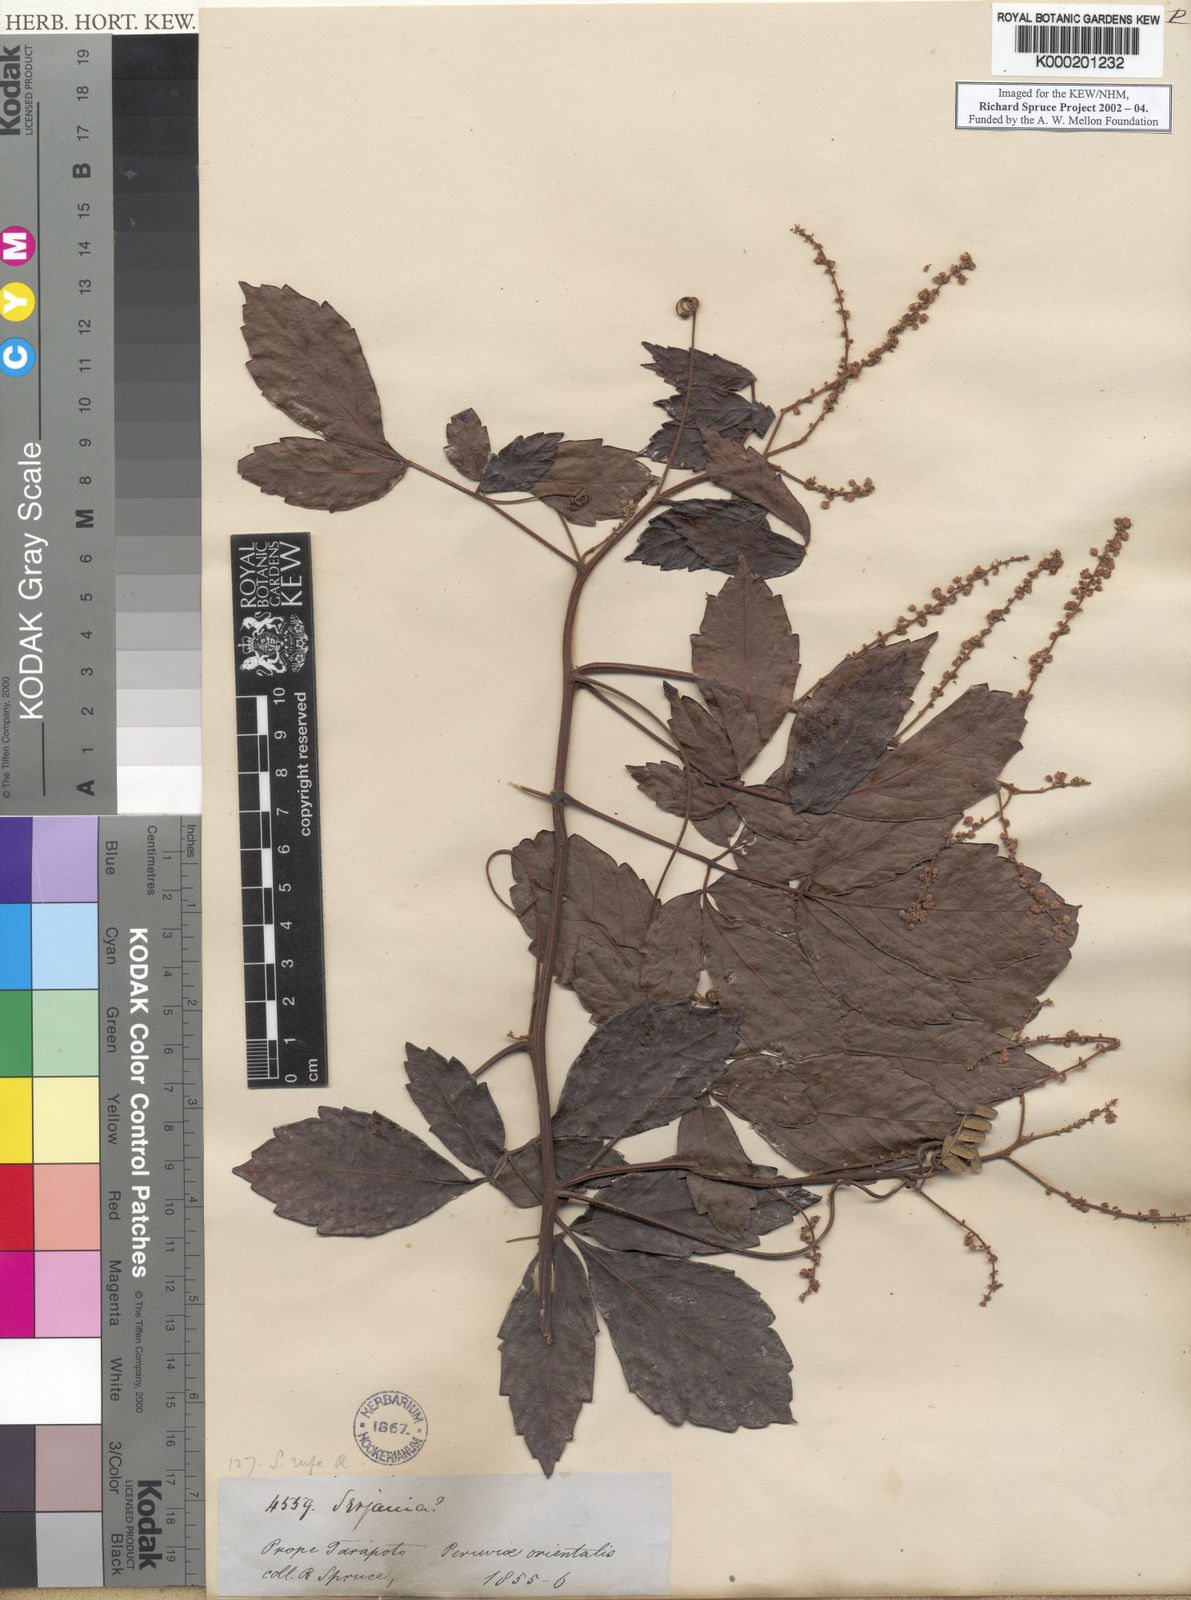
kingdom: Plantae
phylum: Tracheophyta
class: Magnoliopsida
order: Sapindales
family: Sapindaceae
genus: Serjania
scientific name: Serjania rufa
